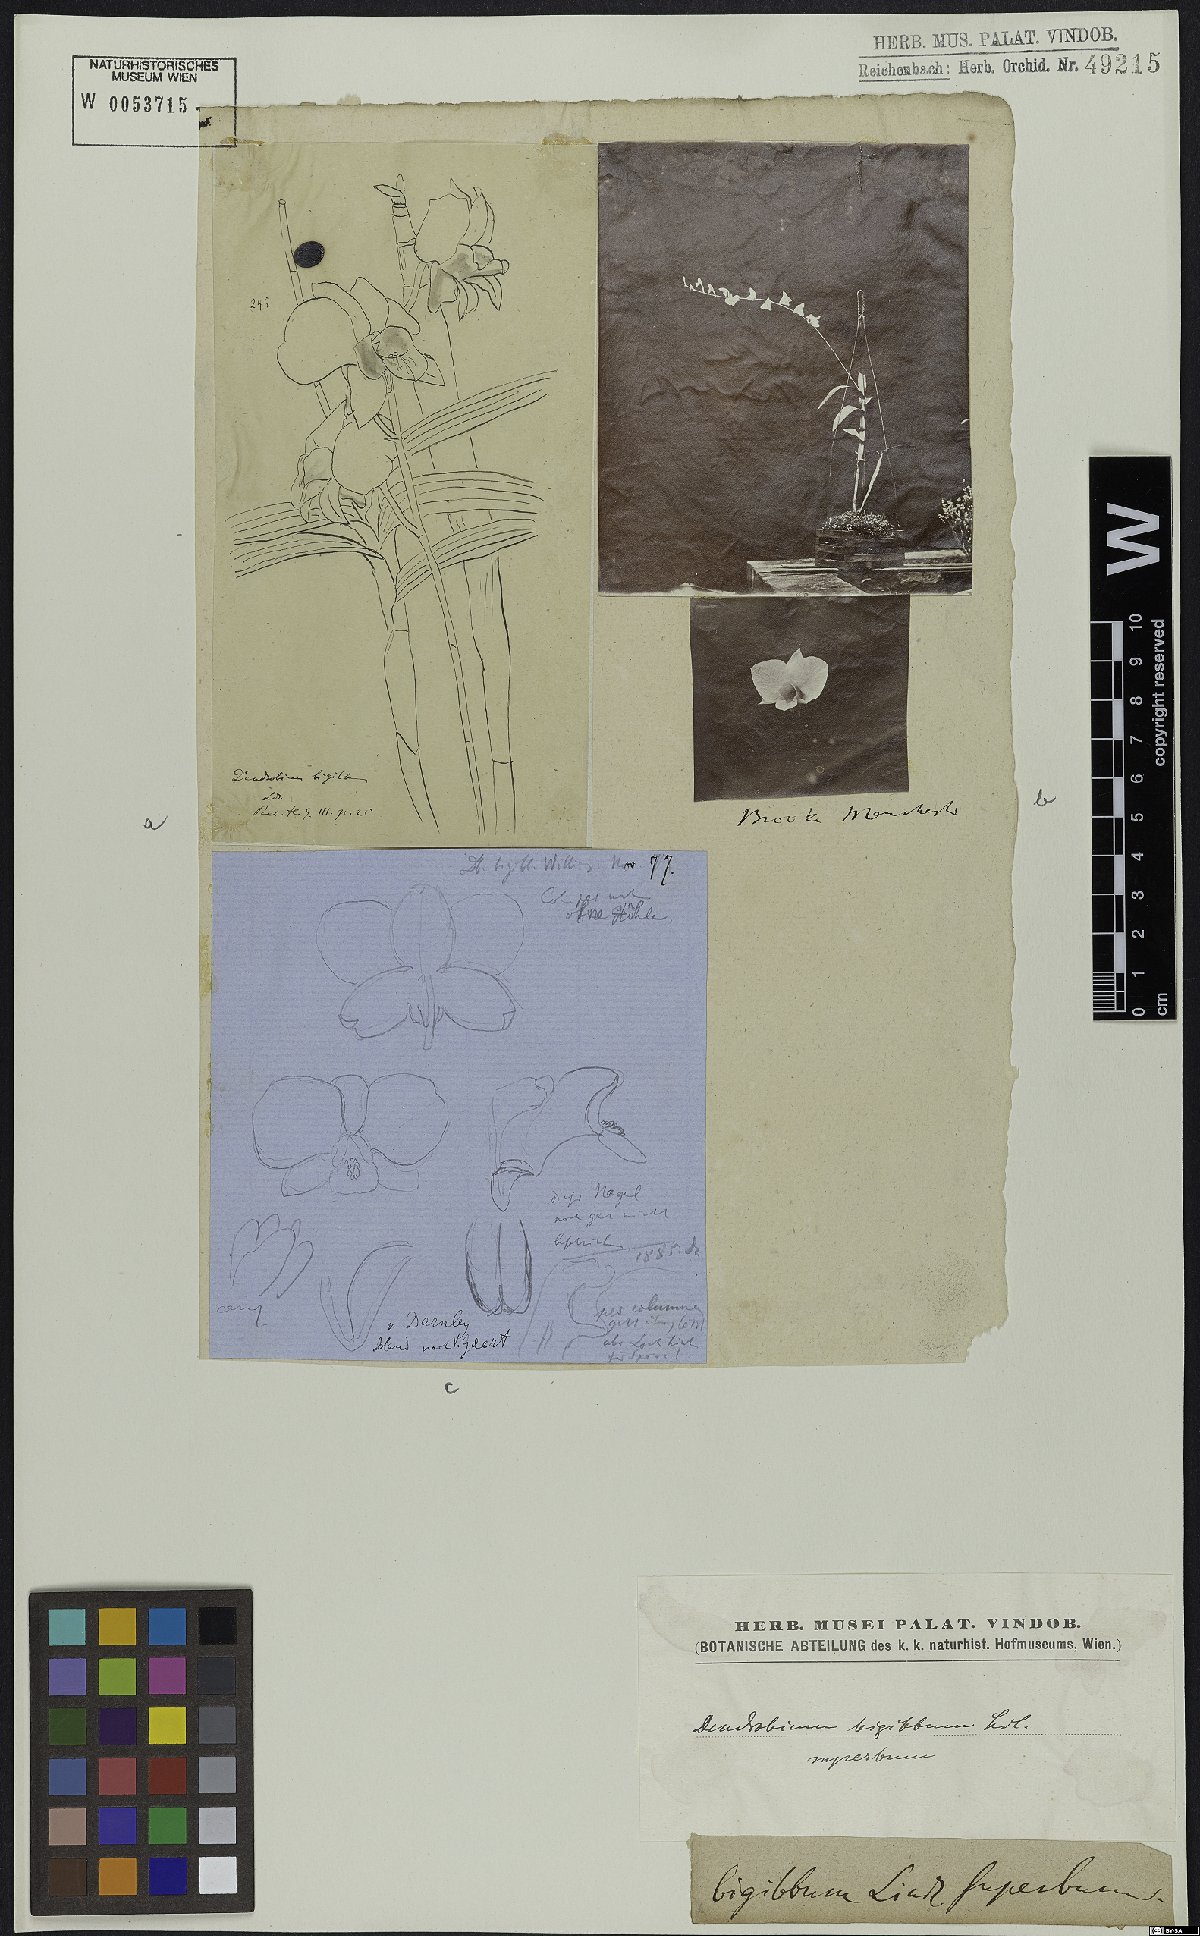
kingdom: Plantae
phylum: Tracheophyta
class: Liliopsida
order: Asparagales
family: Orchidaceae
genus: Dendrobium
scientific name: Dendrobium bigibbum
